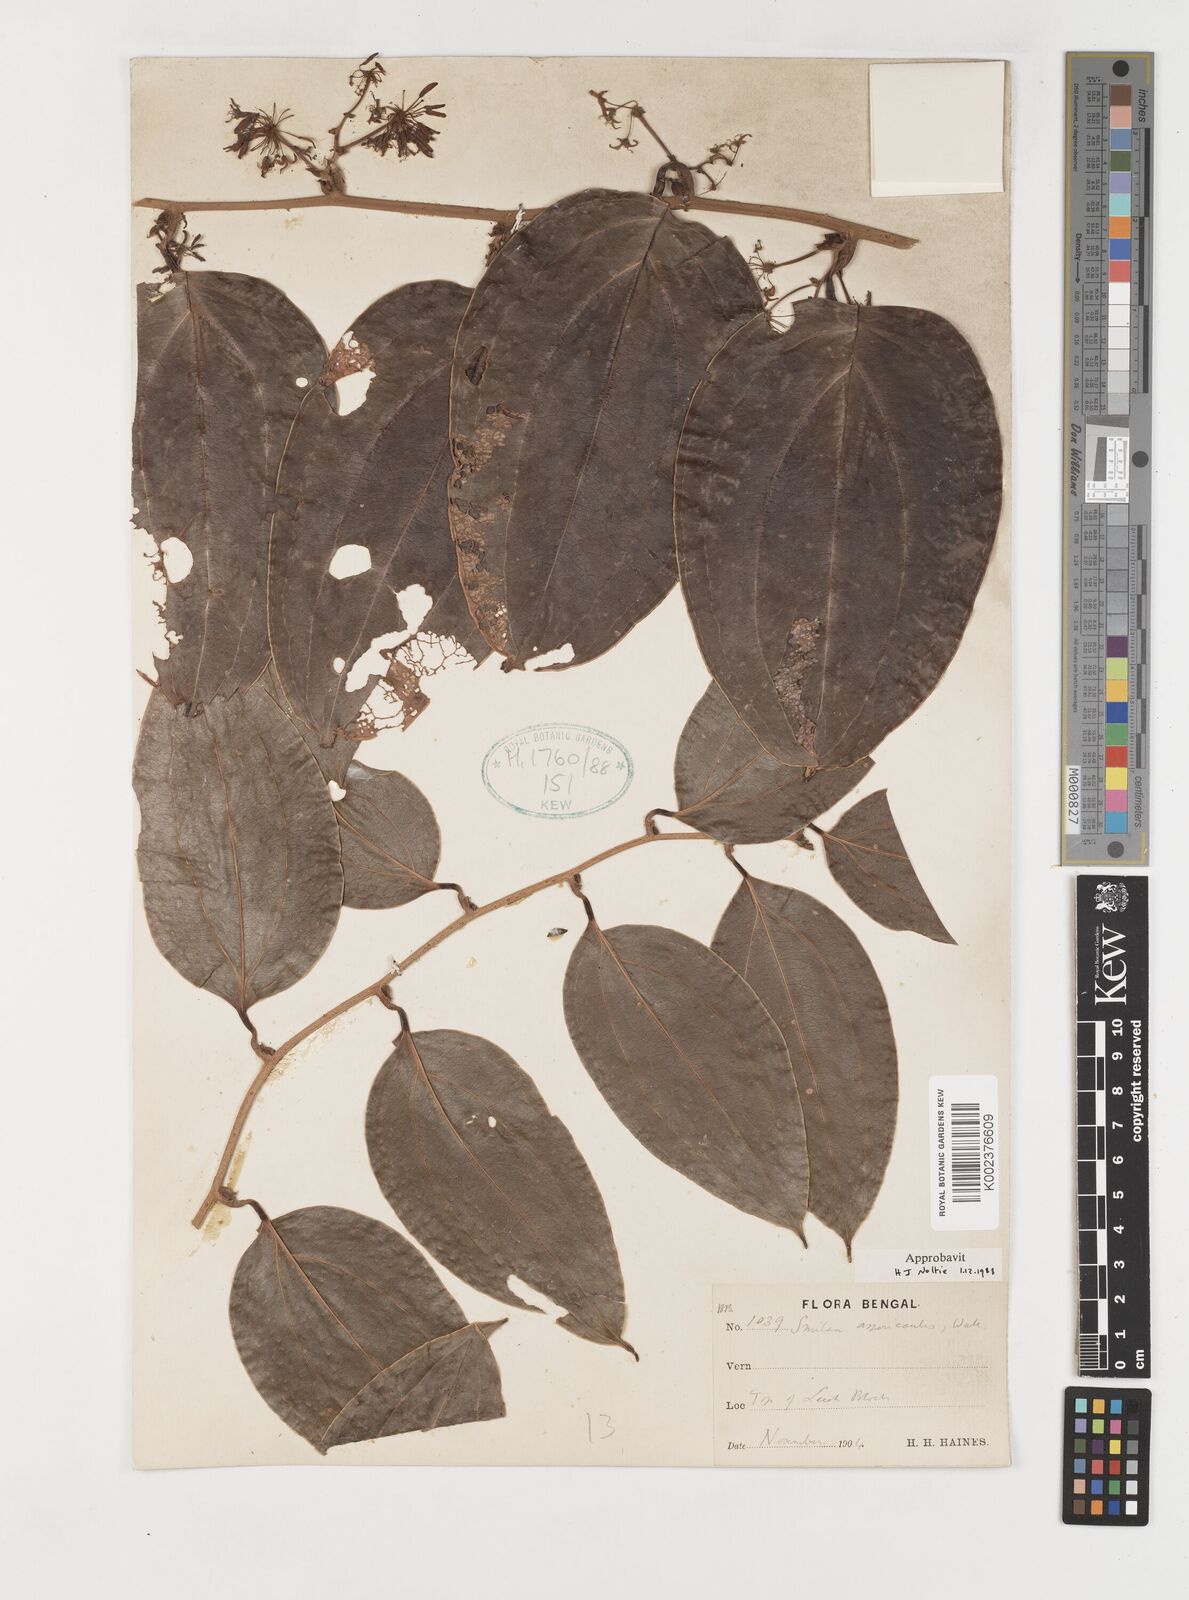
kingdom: Plantae
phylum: Tracheophyta
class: Liliopsida
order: Liliales
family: Smilacaceae
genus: Smilax
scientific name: Smilax aspericaulis
